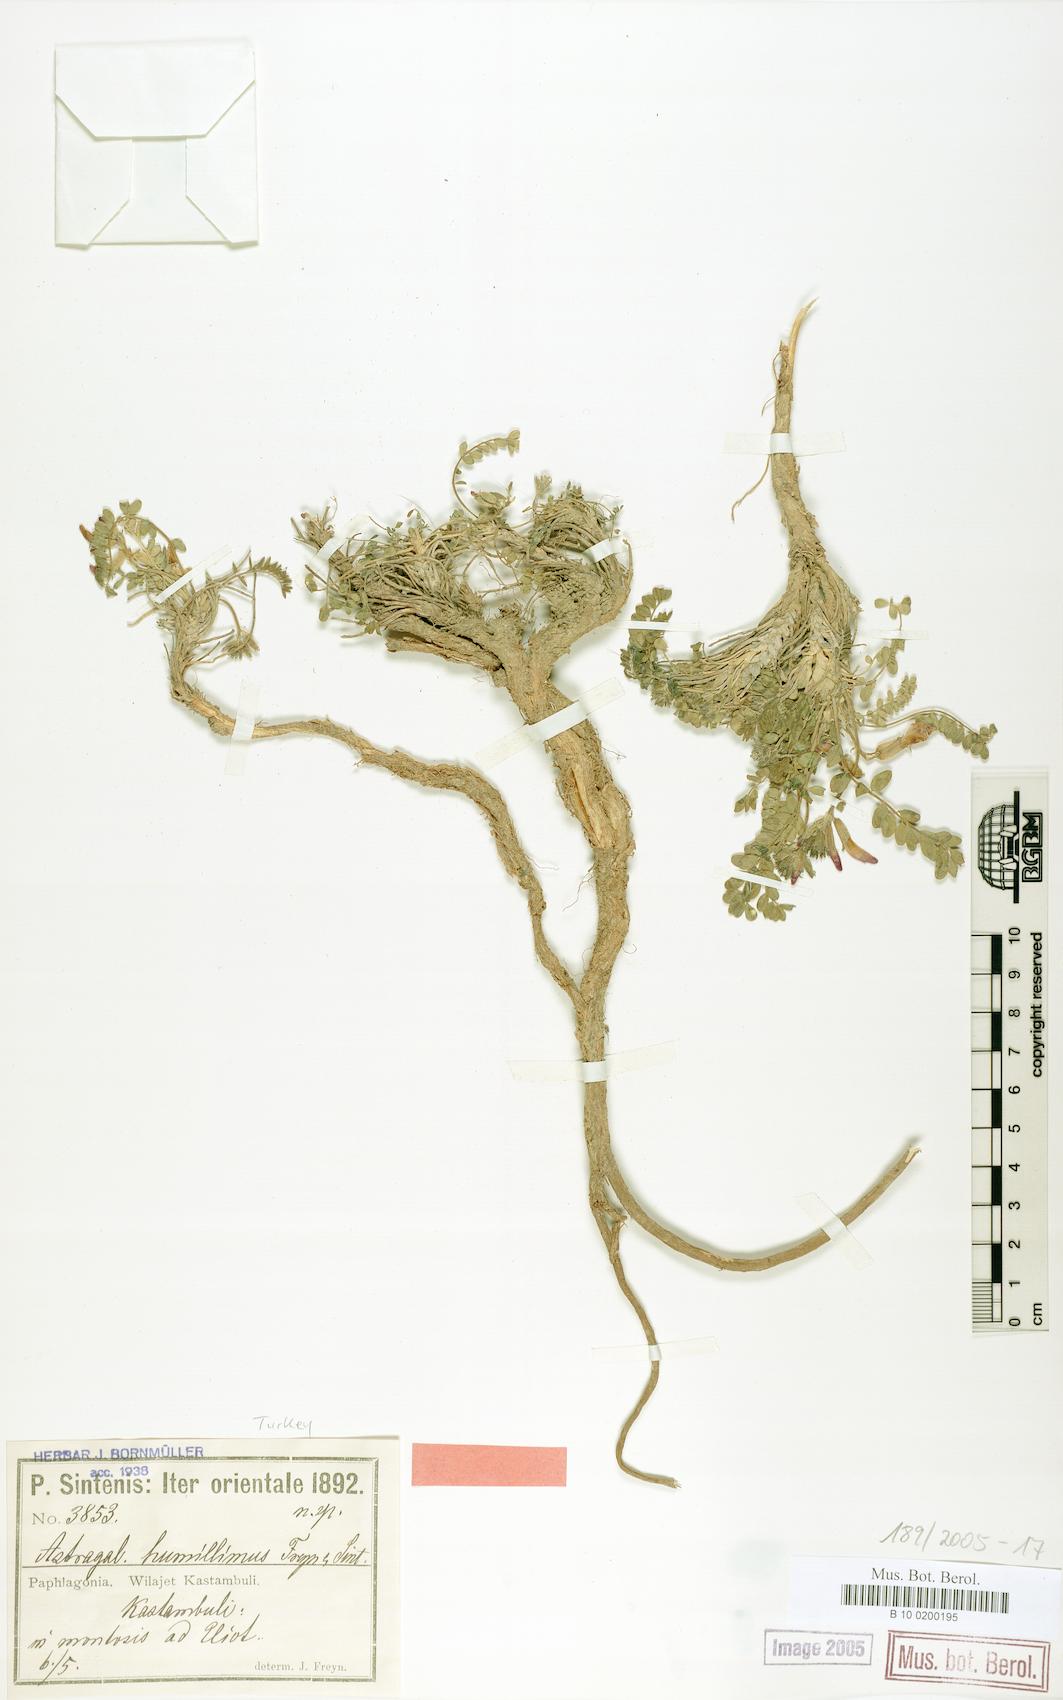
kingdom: Plantae
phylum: Tracheophyta
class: Magnoliopsida
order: Fabales
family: Fabaceae
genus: Astragalus
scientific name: Astragalus humillimus
